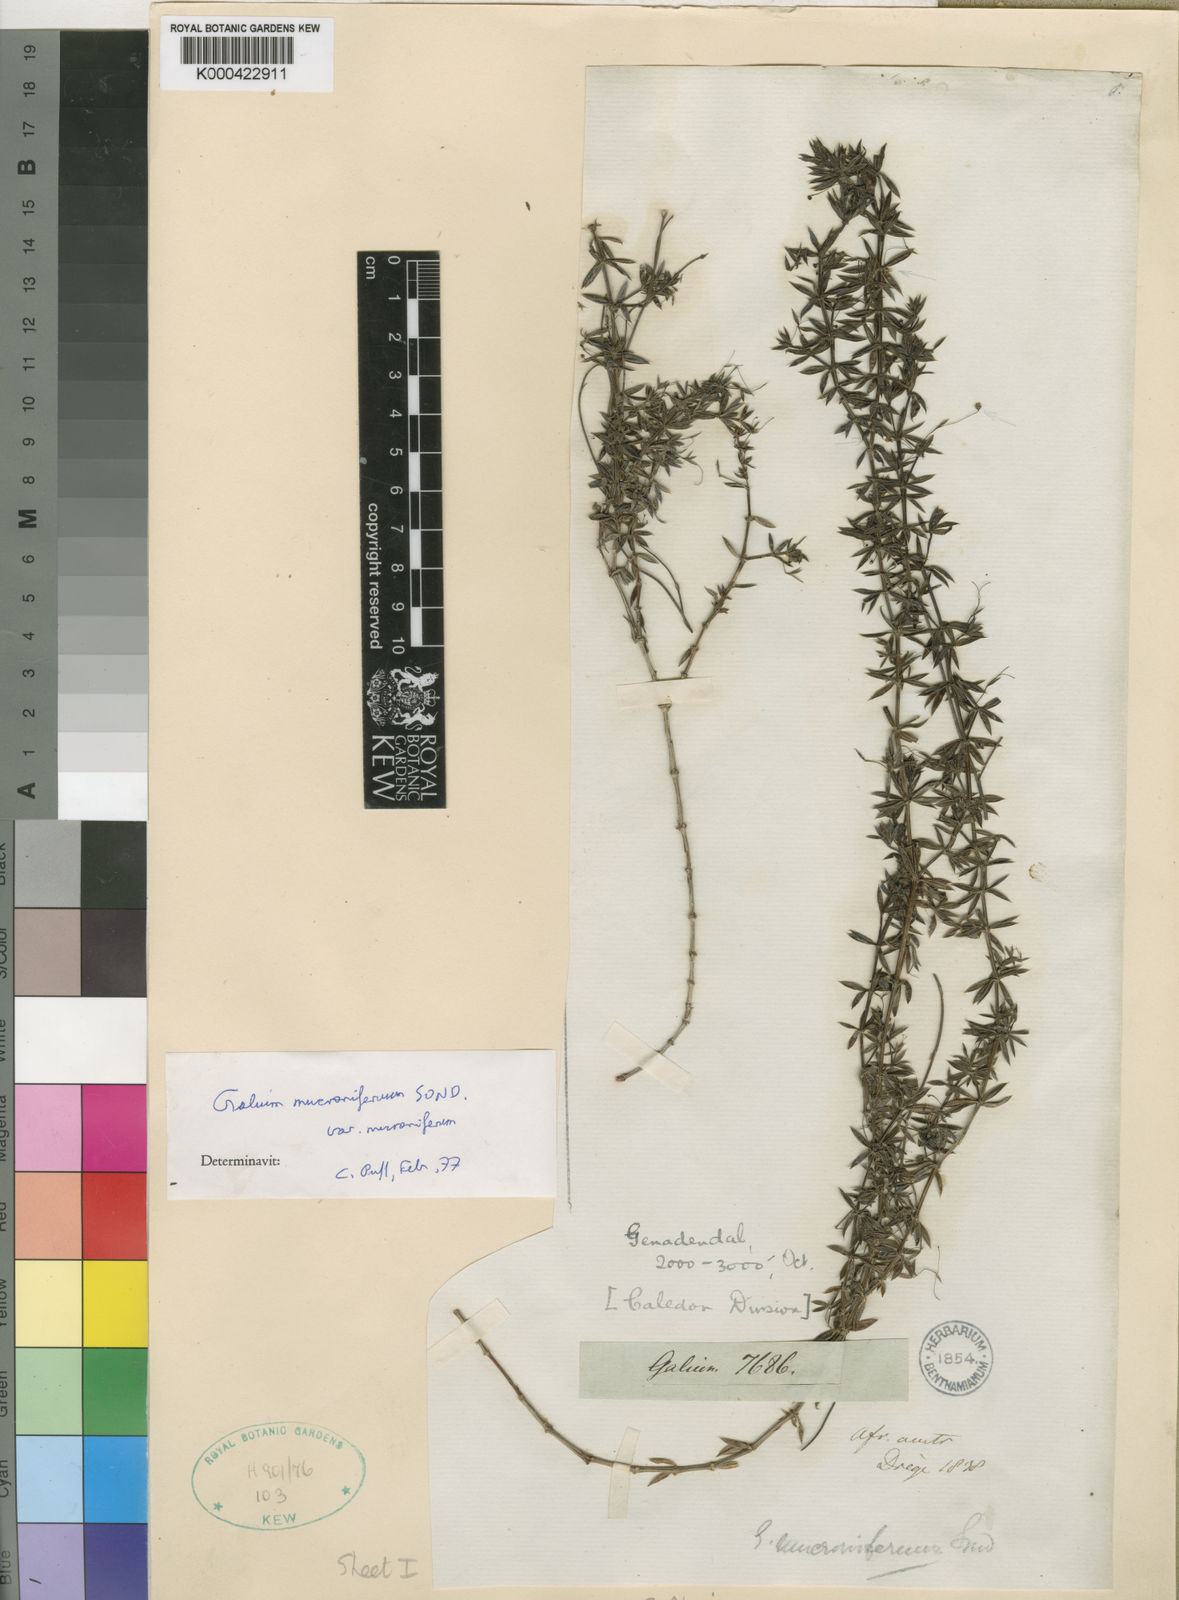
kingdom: Plantae
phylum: Tracheophyta
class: Magnoliopsida
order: Gentianales
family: Rubiaceae
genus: Galium
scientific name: Galium mucroniferum
